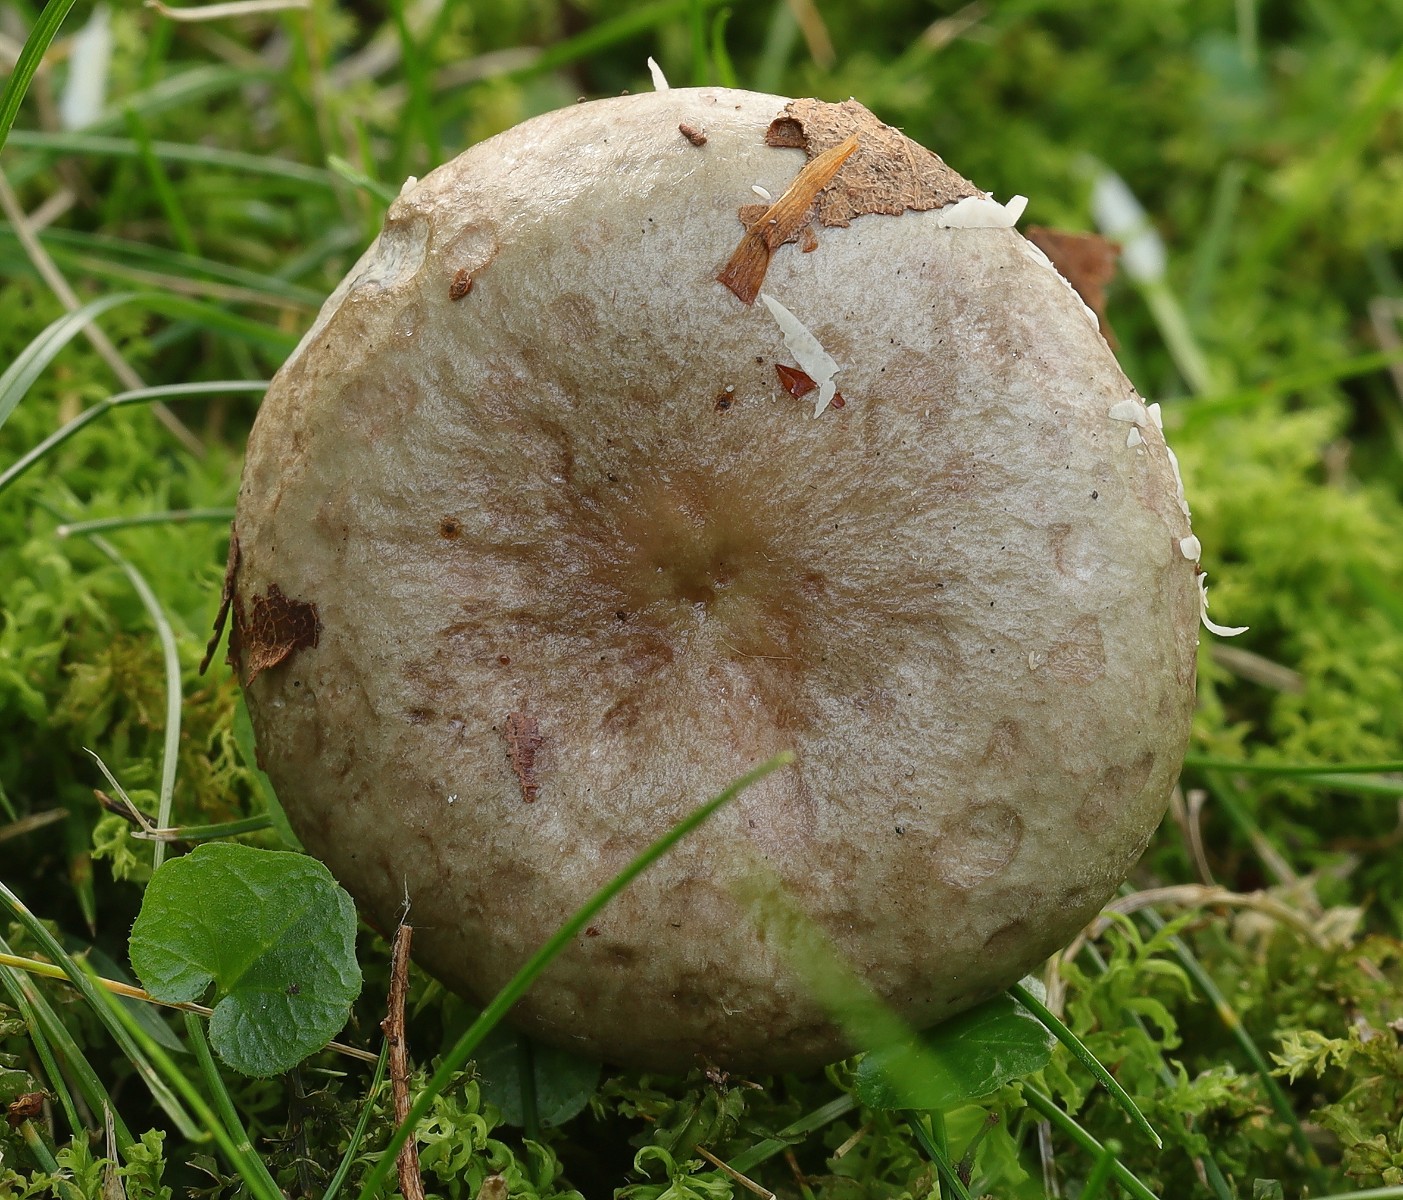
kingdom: Fungi
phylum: Basidiomycota
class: Agaricomycetes
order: Russulales
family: Russulaceae
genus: Lactarius
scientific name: Lactarius blennius
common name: dråbeplettet mælkehat
